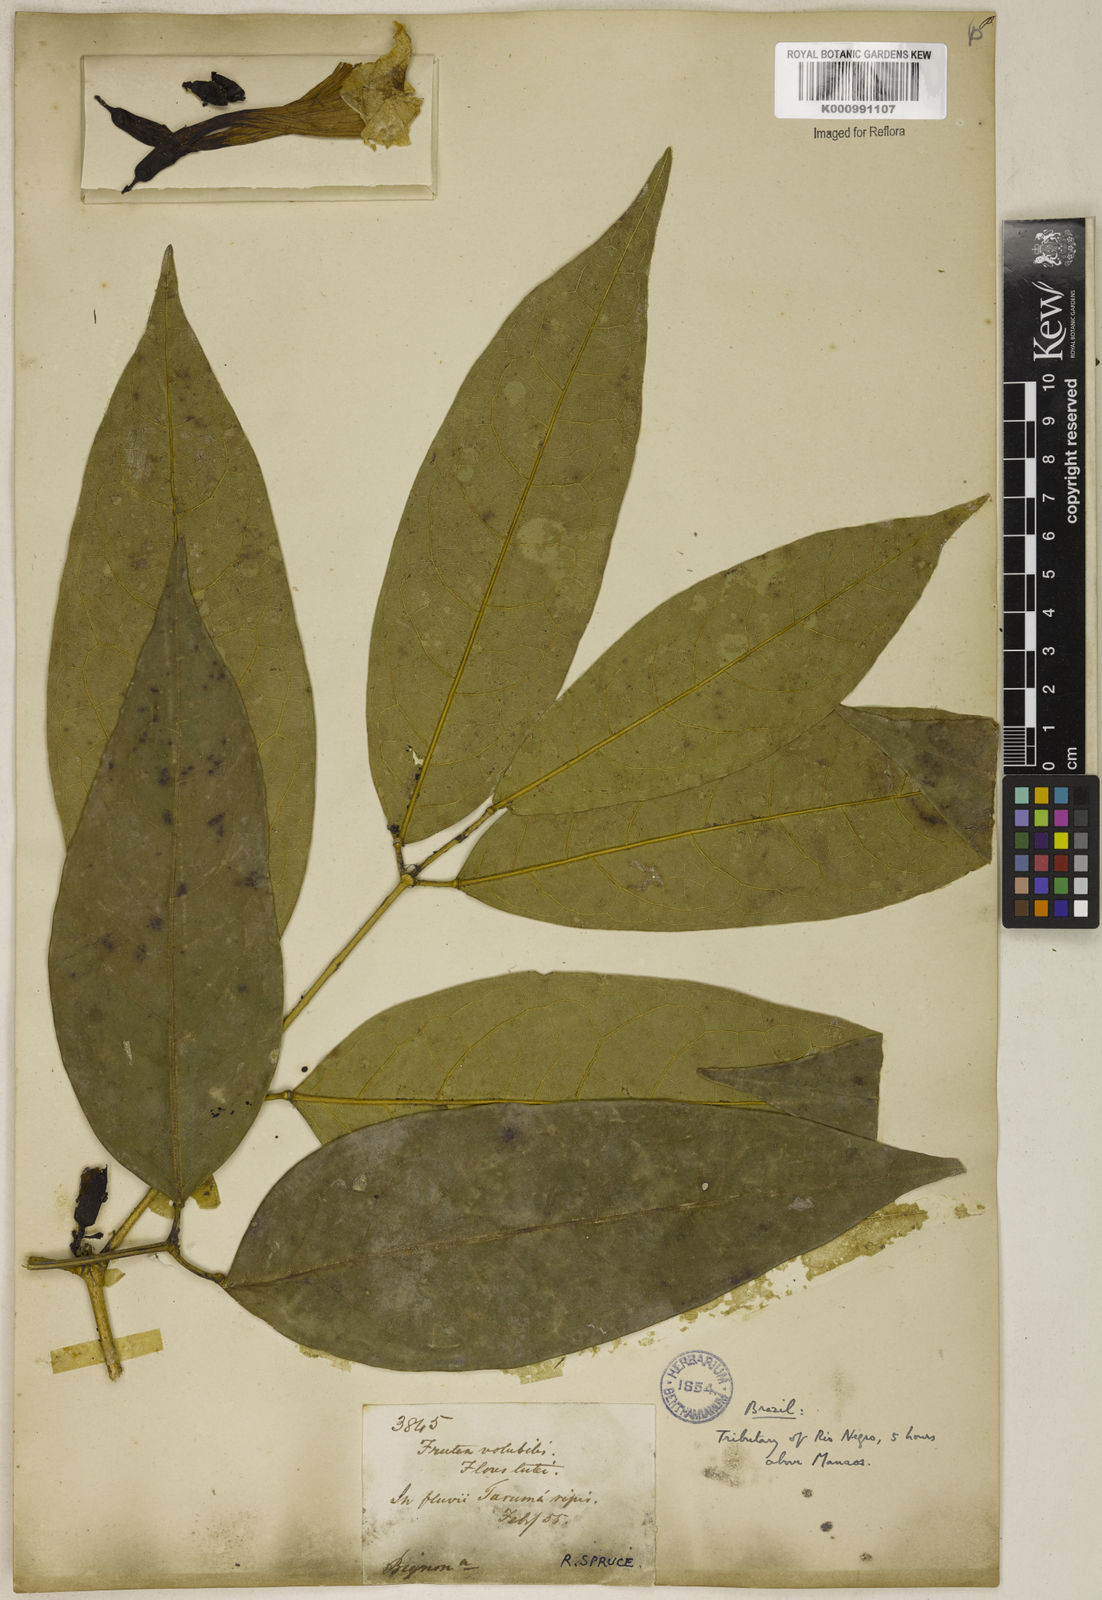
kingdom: Plantae
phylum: Tracheophyta
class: Magnoliopsida
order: Lamiales
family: Bignoniaceae
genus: Adenocalymma
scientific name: Adenocalymma schomburgkii
